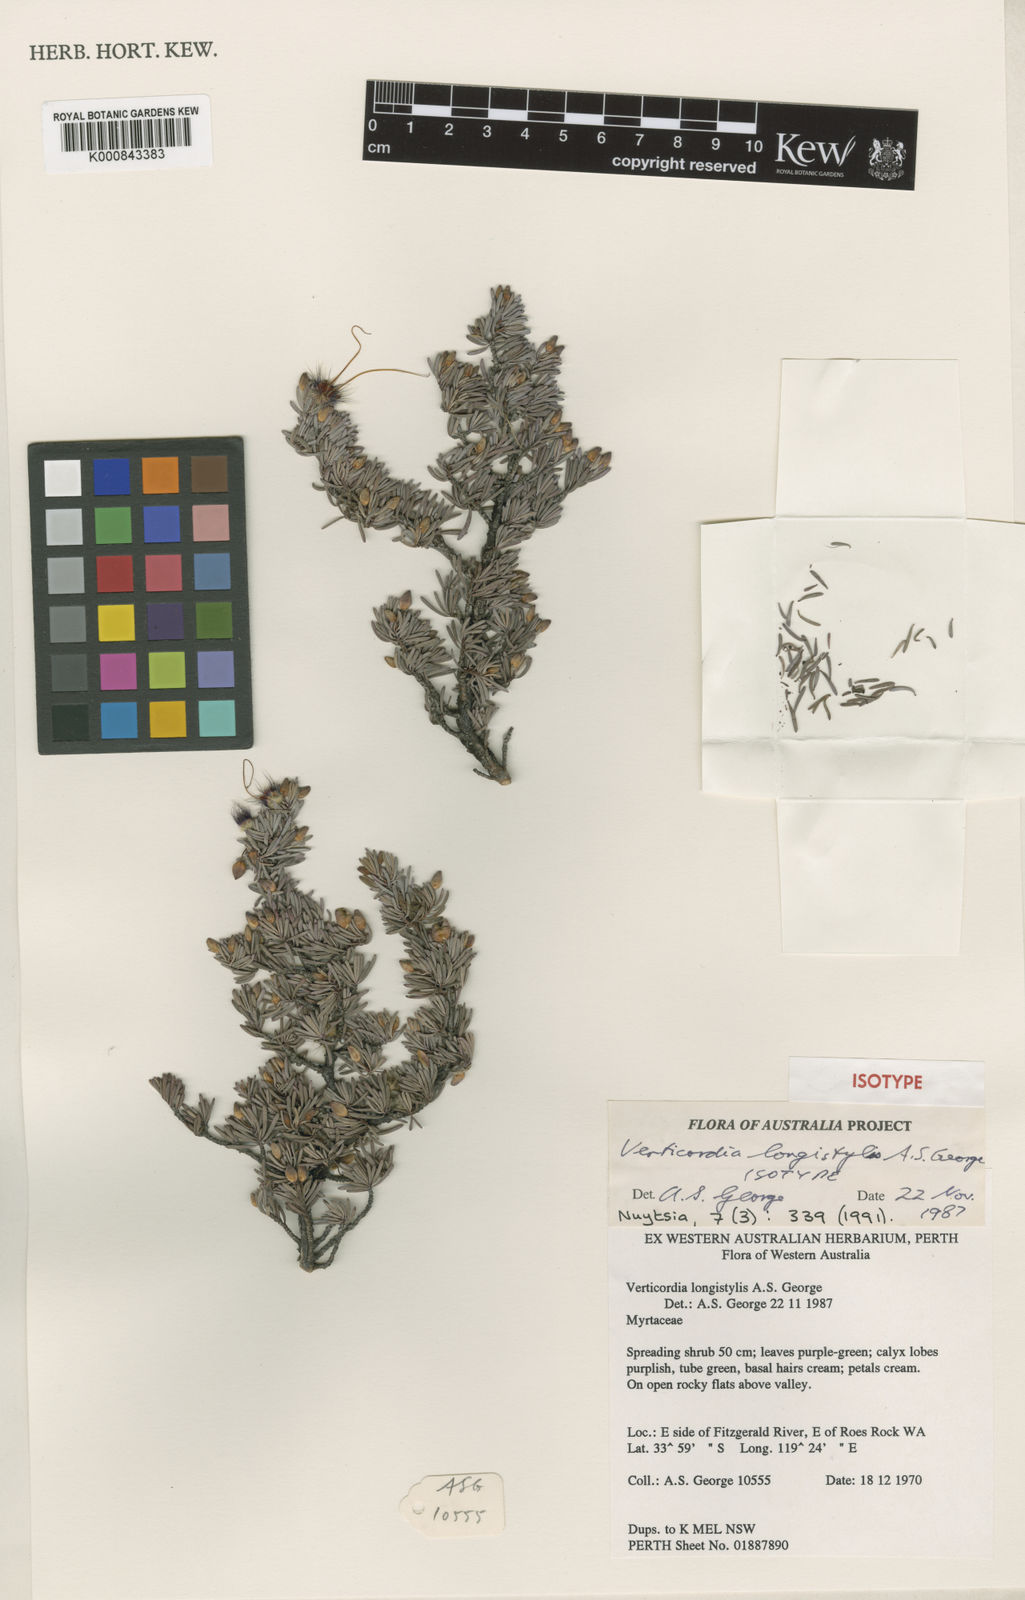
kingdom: Plantae
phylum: Tracheophyta
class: Magnoliopsida
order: Myrtales
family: Myrtaceae
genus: Verticordia
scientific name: Verticordia longistylis
